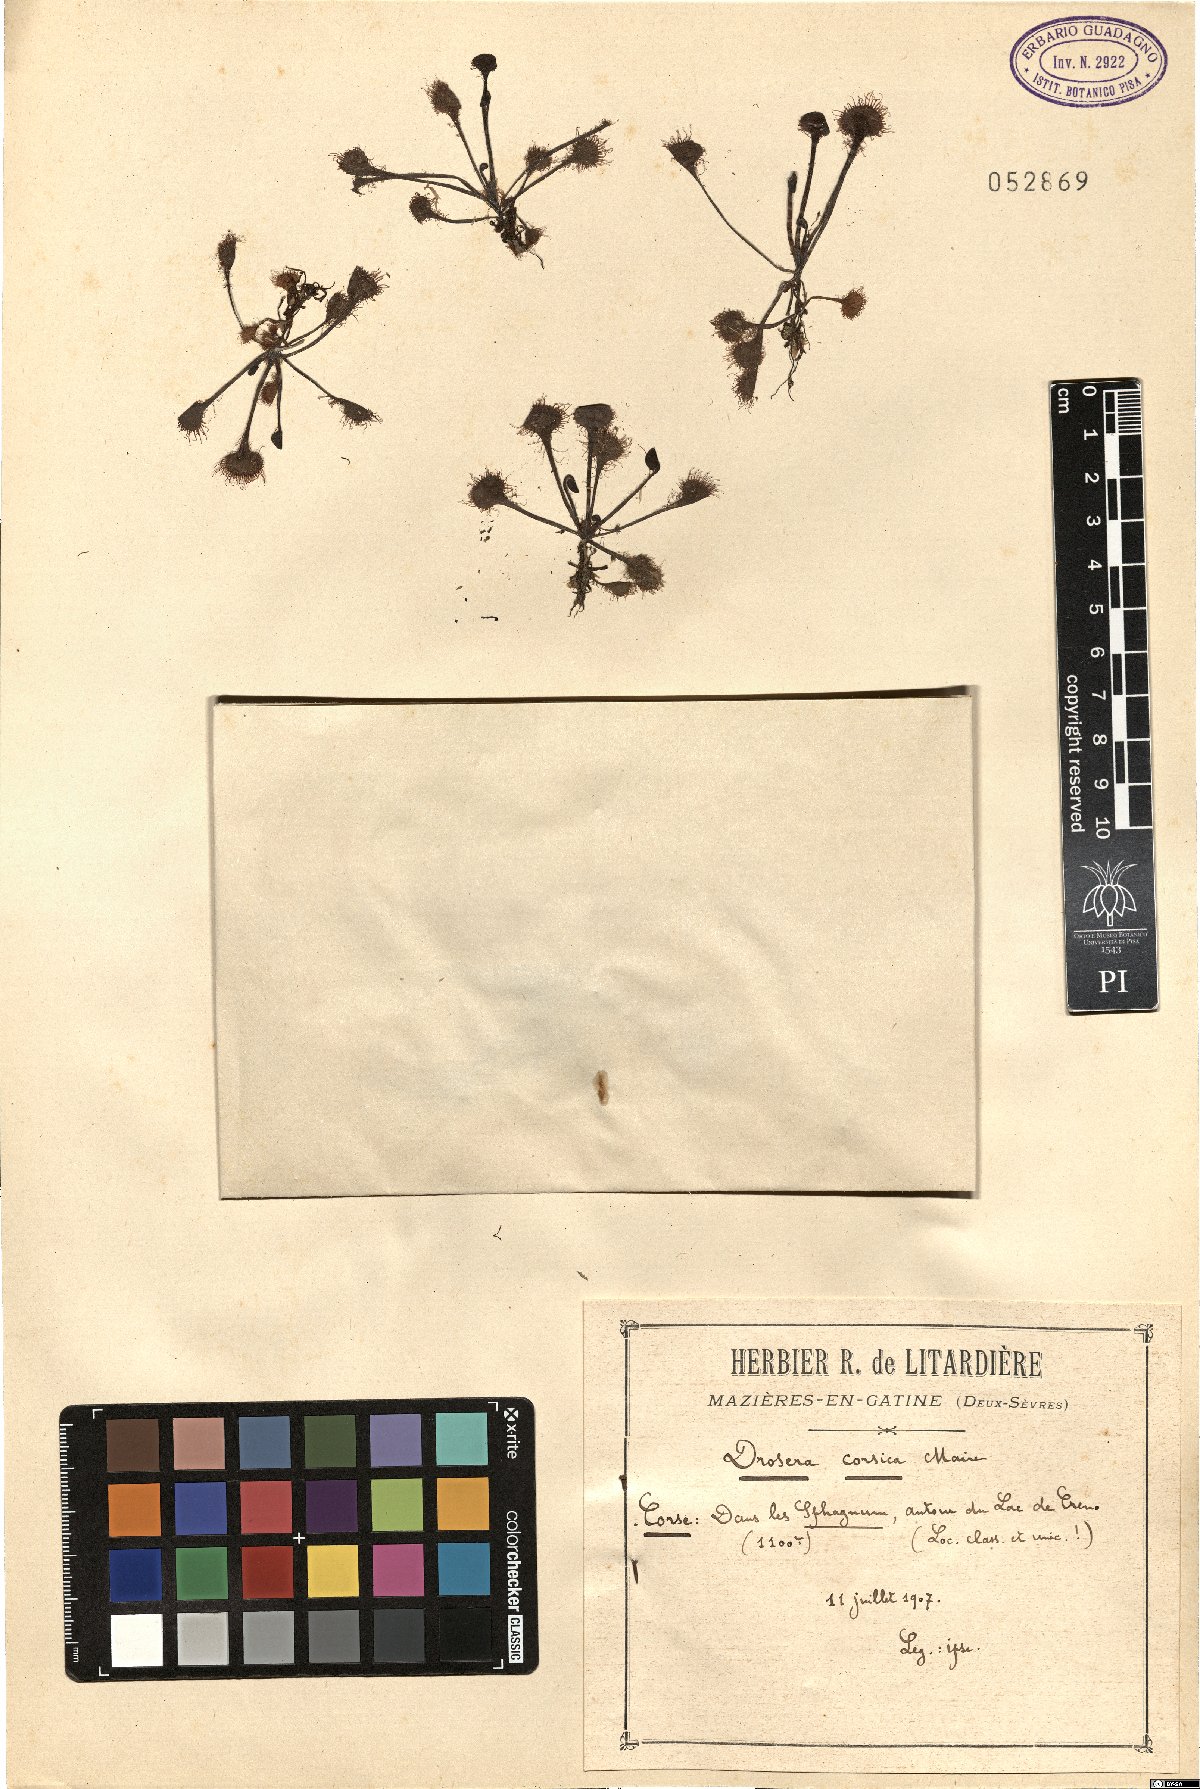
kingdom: Plantae
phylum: Tracheophyta
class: Magnoliopsida
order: Caryophyllales
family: Droseraceae
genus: Drosera
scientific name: Drosera rotundifolia
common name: Round-leaved sundew
